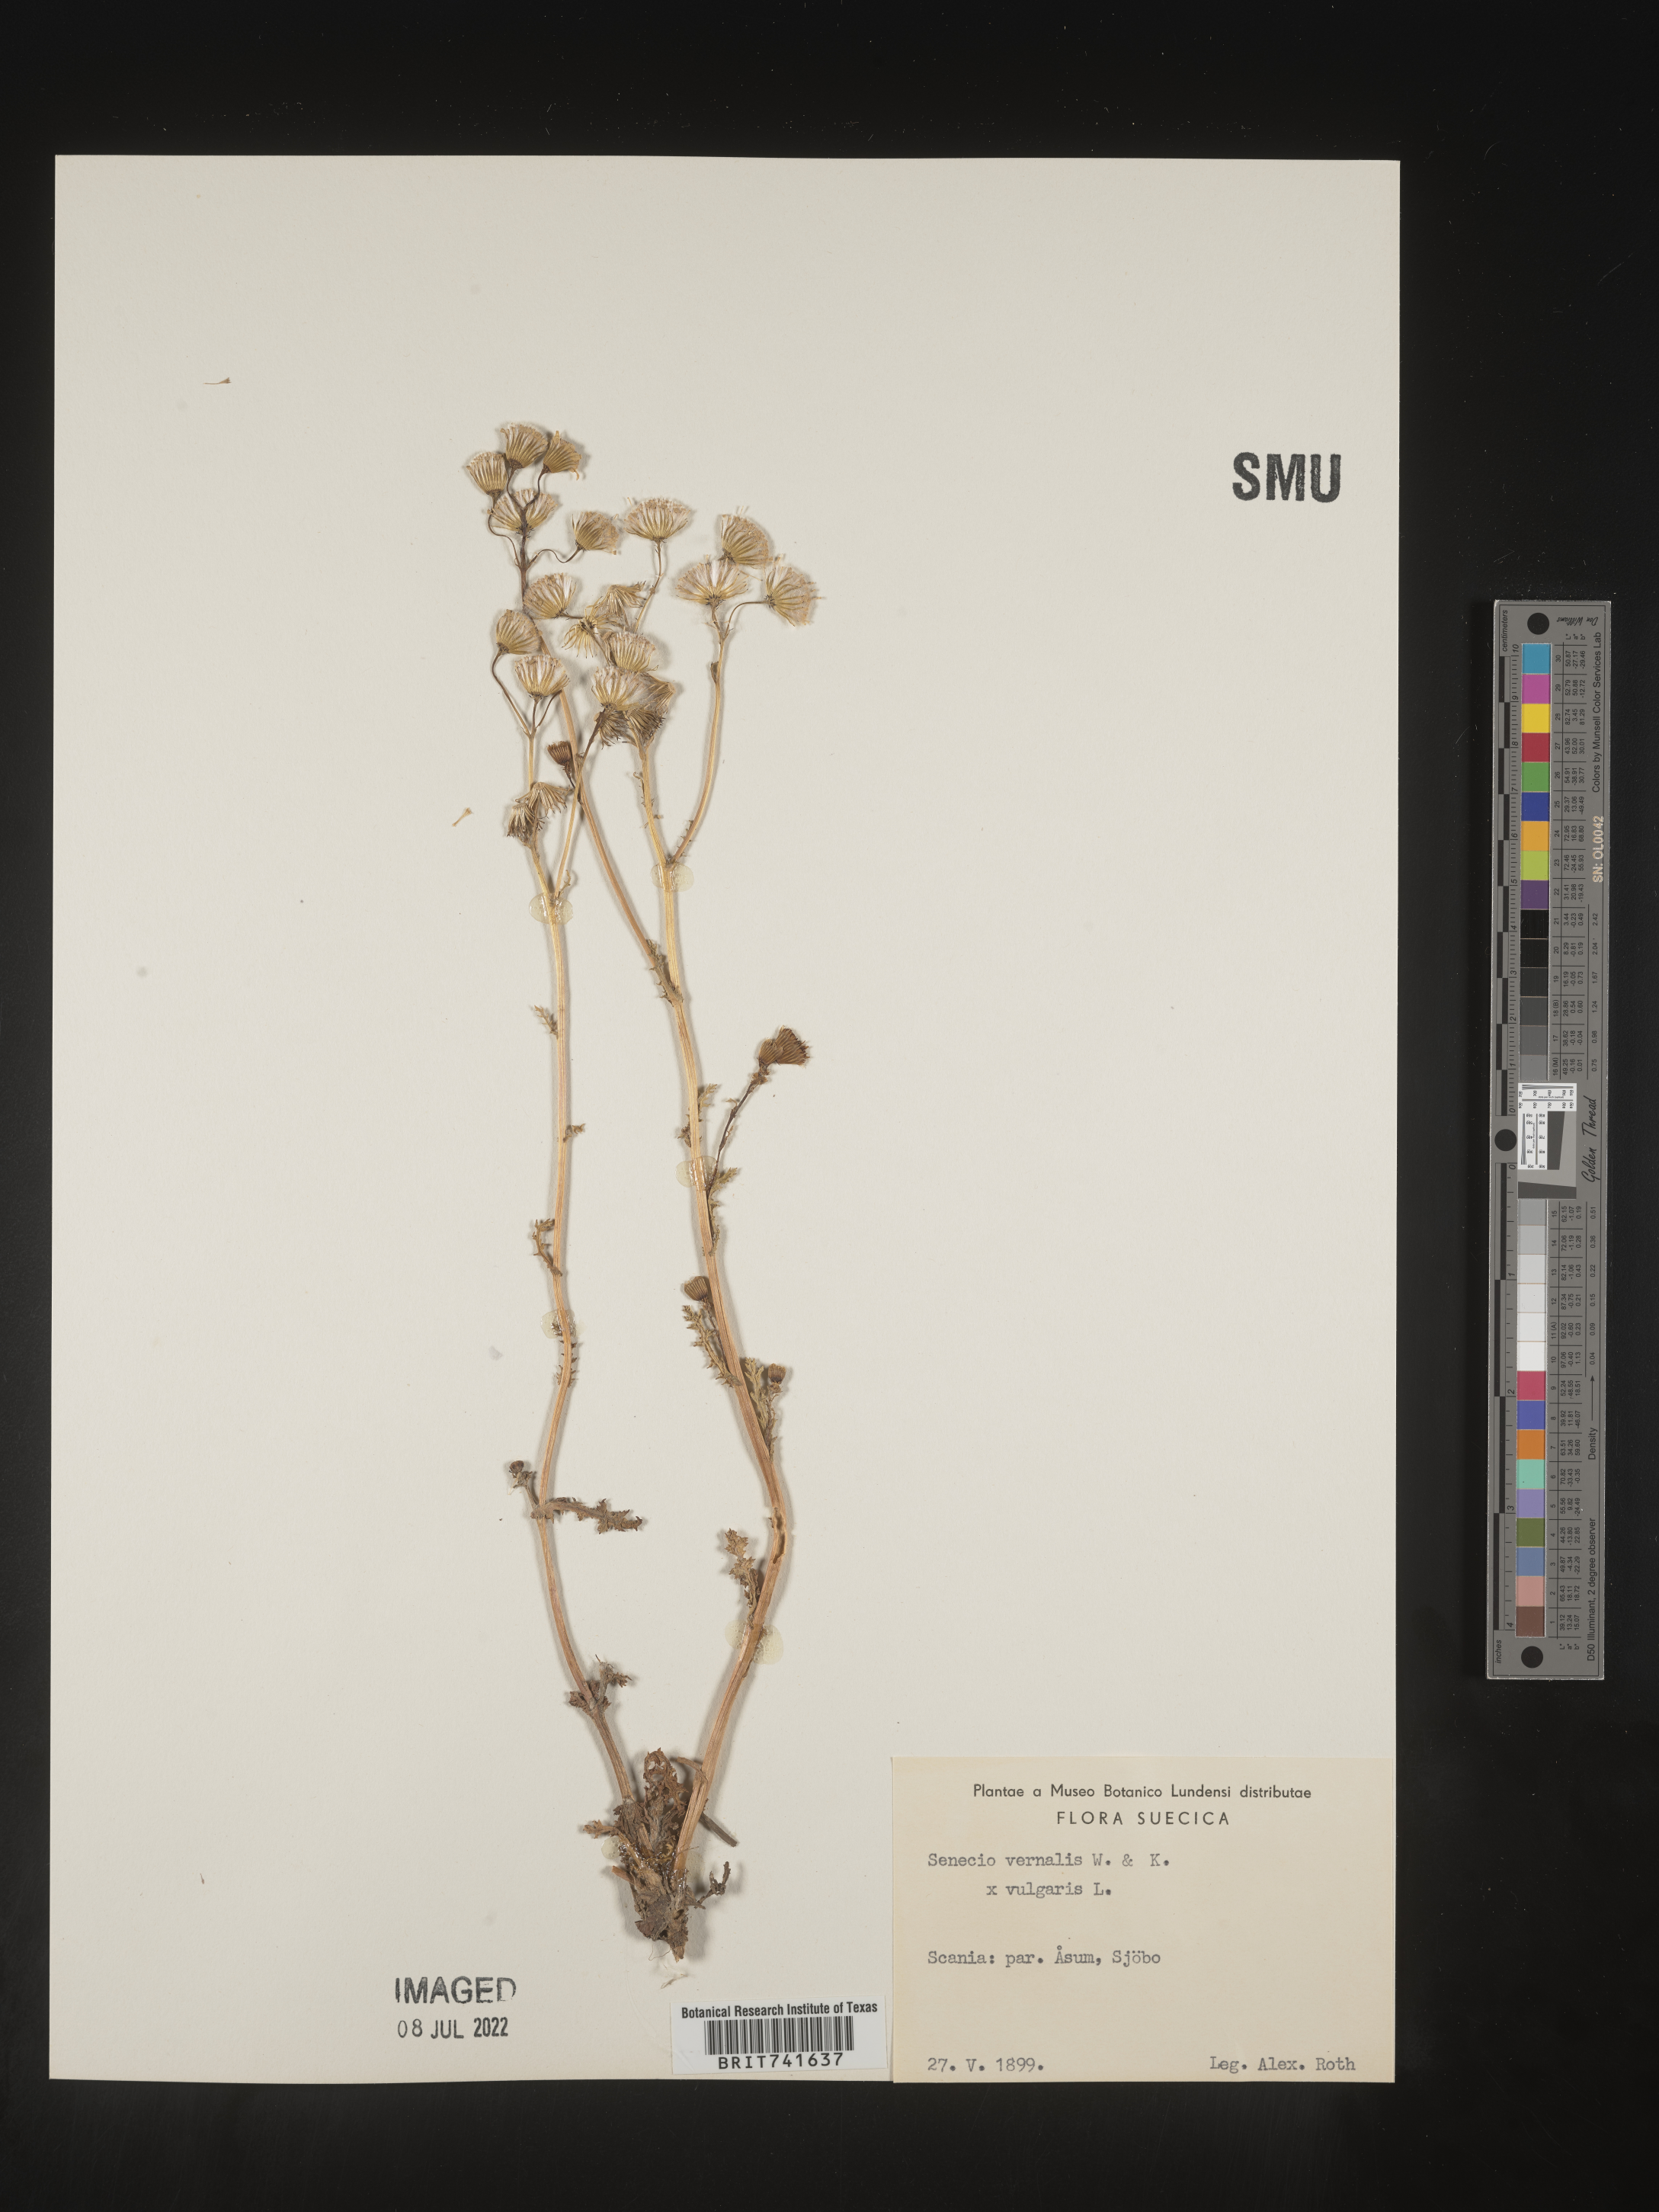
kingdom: Plantae
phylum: Tracheophyta
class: Magnoliopsida
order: Asterales
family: Asteraceae
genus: Senecio
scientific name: Senecio vernalis
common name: Eastern groundsel
